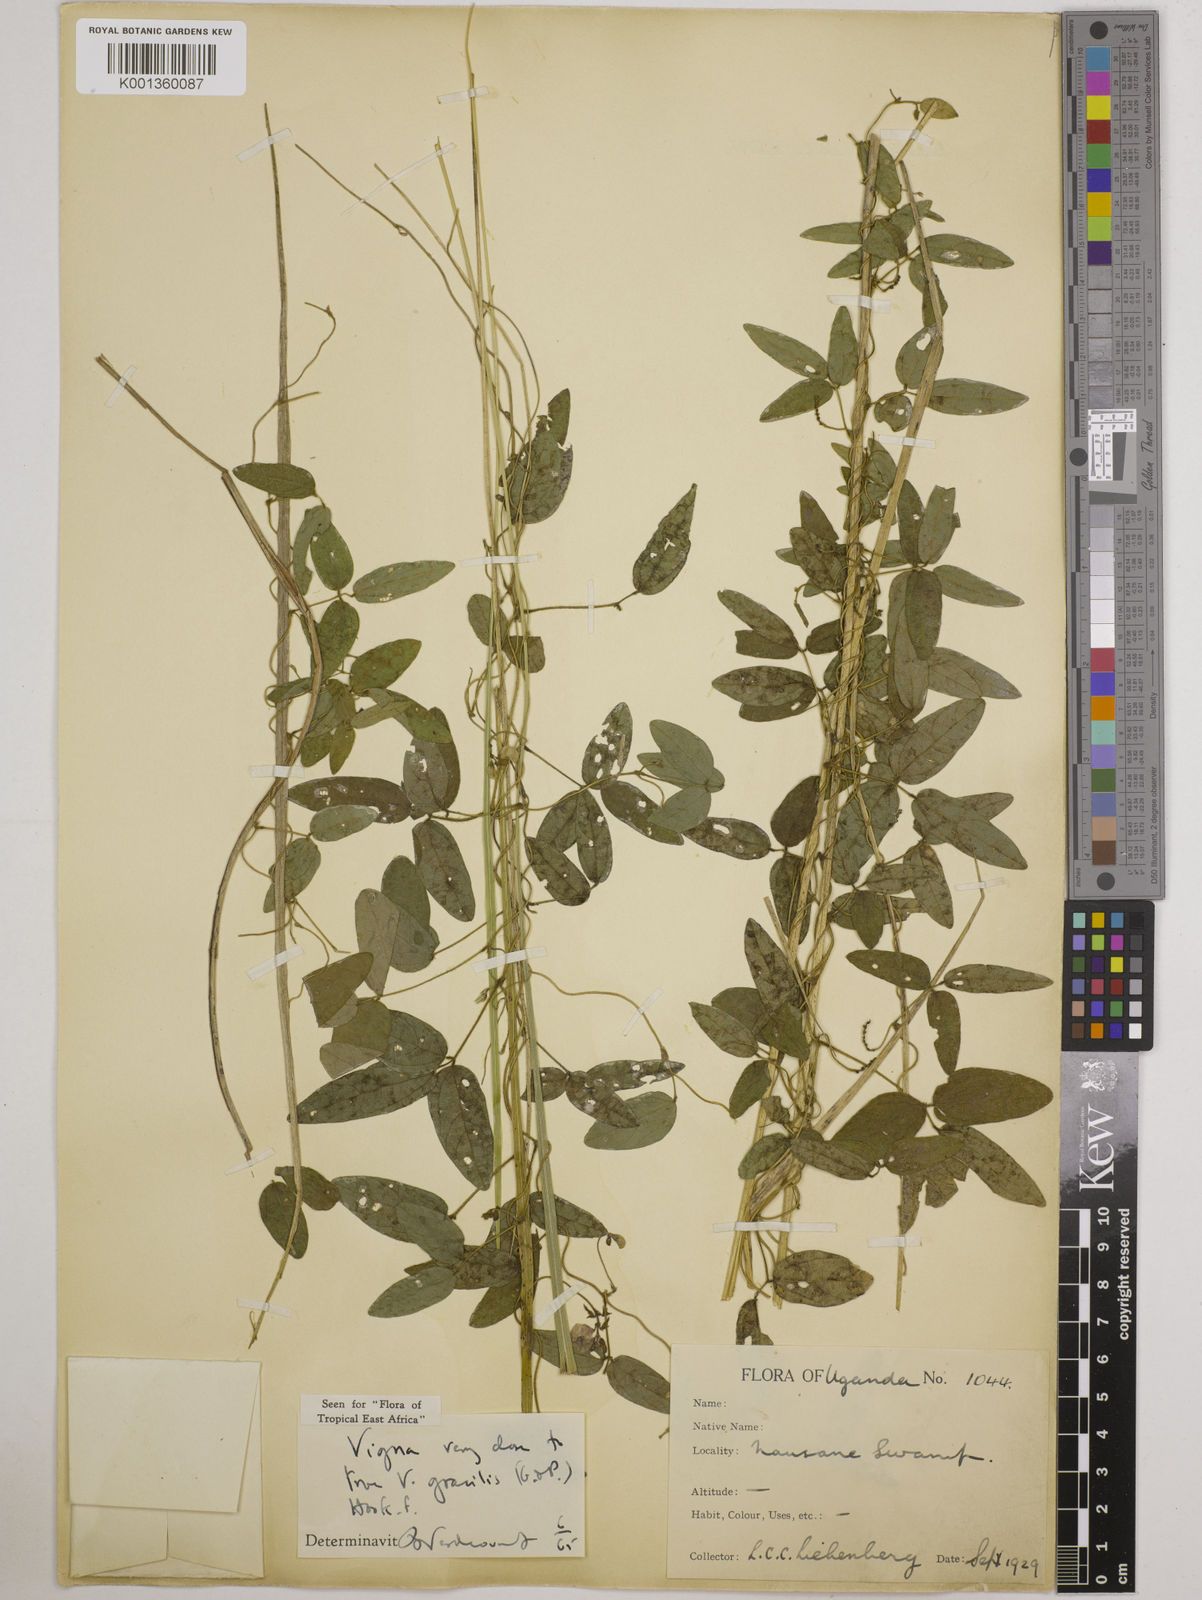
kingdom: Plantae
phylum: Tracheophyta
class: Magnoliopsida
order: Fabales
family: Fabaceae
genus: Vigna
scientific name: Vigna gracilis
